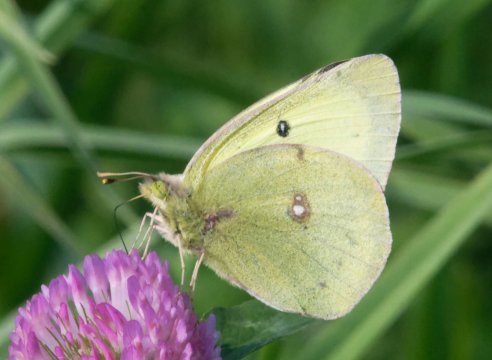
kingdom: Animalia
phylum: Arthropoda
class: Insecta
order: Lepidoptera
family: Pieridae
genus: Colias
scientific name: Colias philodice
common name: Clouded Sulphur
